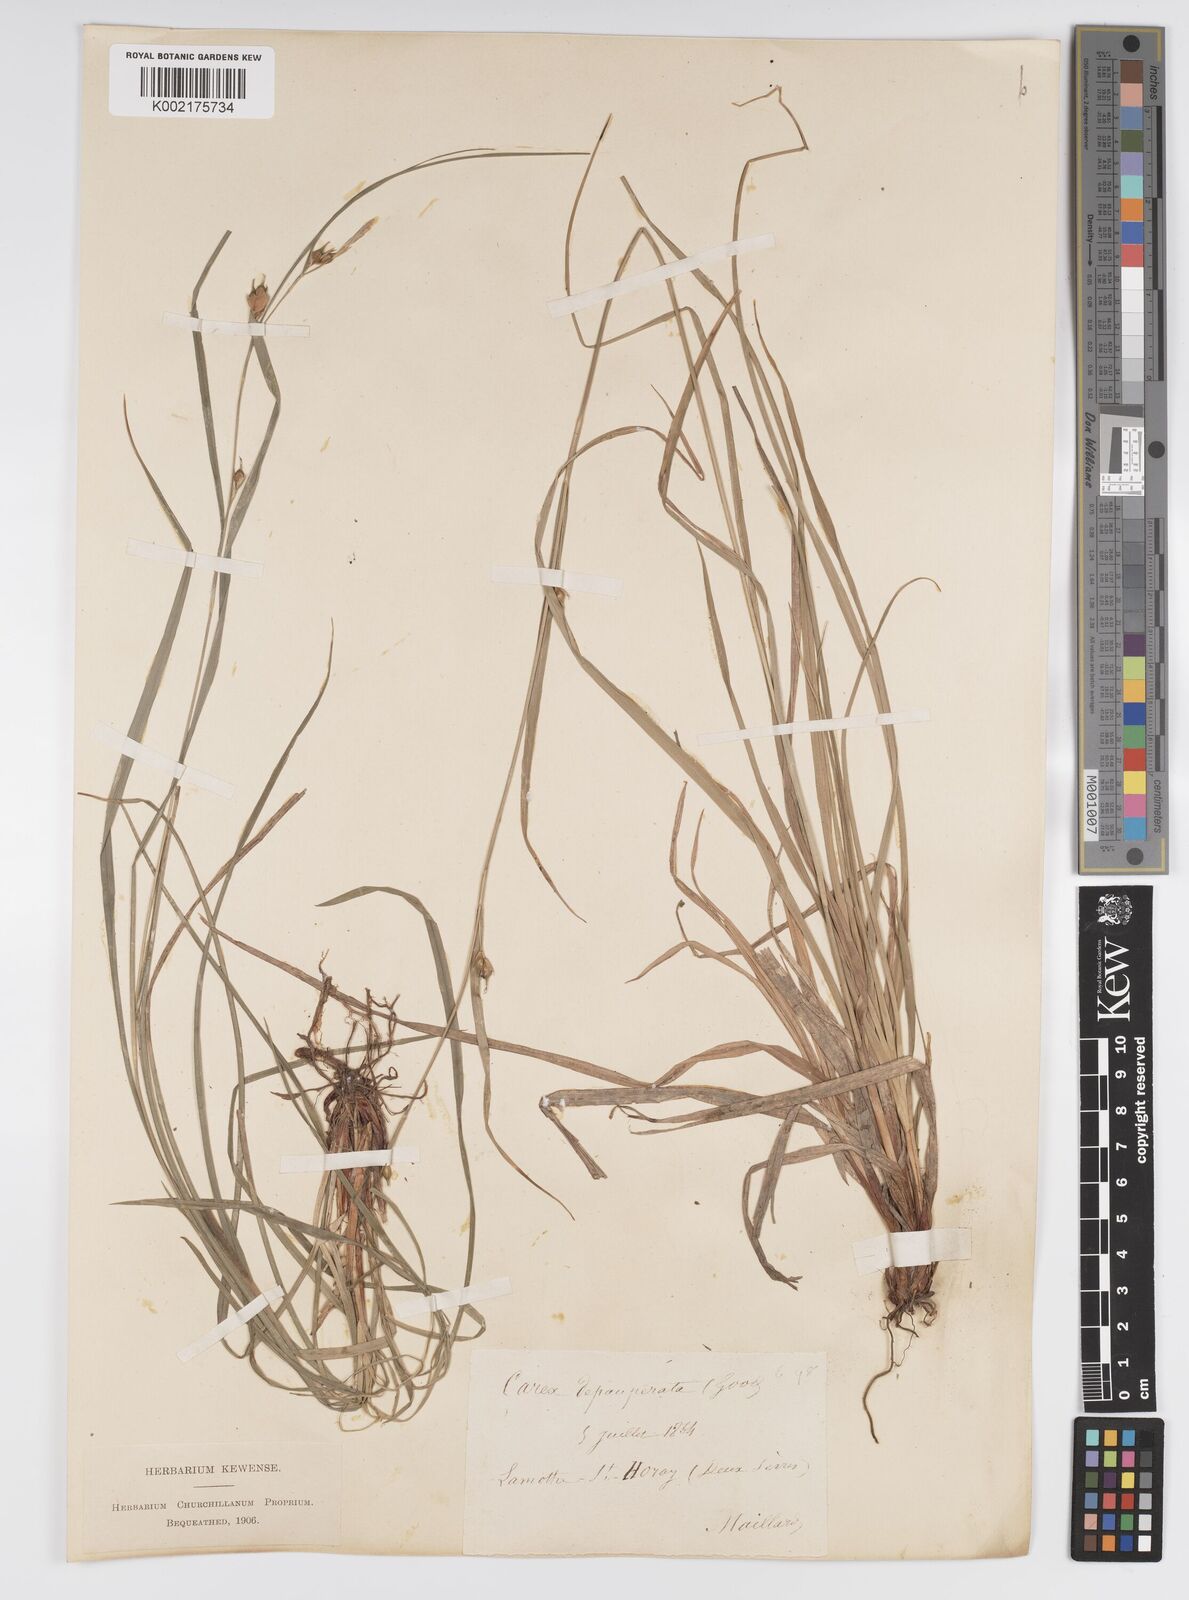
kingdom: Plantae
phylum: Tracheophyta
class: Liliopsida
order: Poales
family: Cyperaceae
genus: Carex
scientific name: Carex
